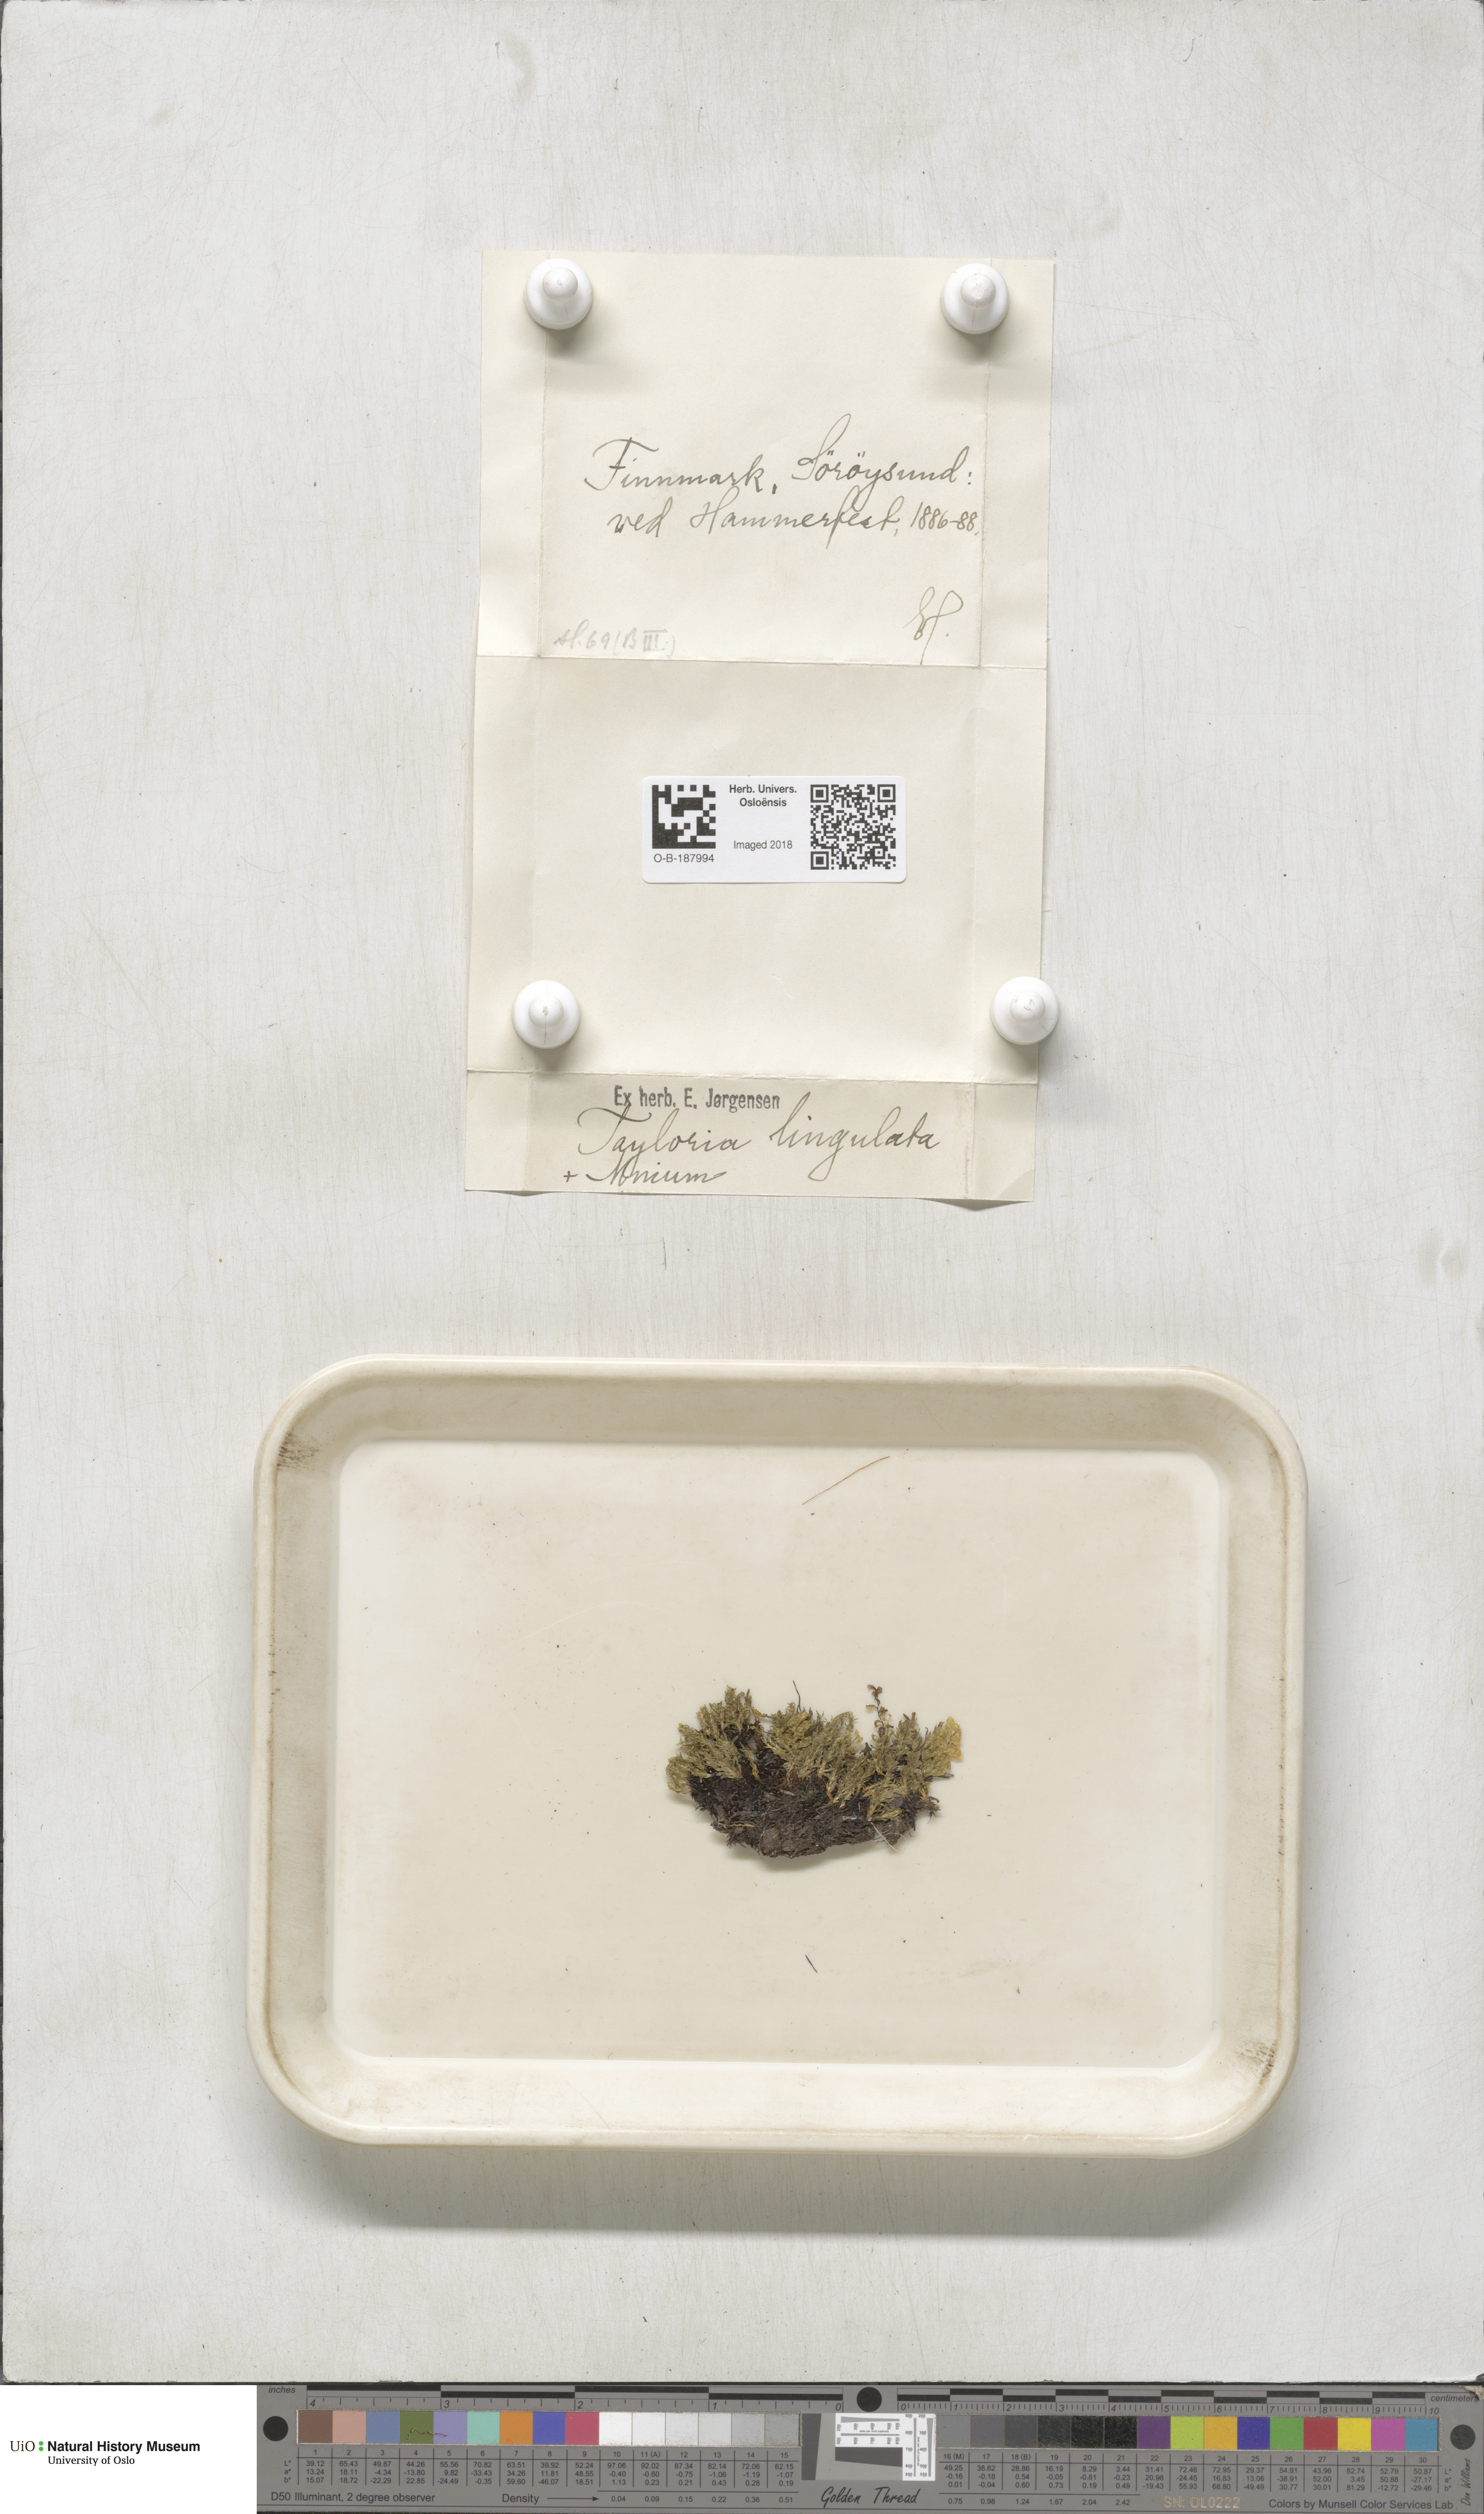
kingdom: Plantae
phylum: Bryophyta
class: Bryopsida
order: Splachnales
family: Splachnaceae
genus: Tayloria
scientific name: Tayloria lingulata
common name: Tongue-leaved trumpet moss
